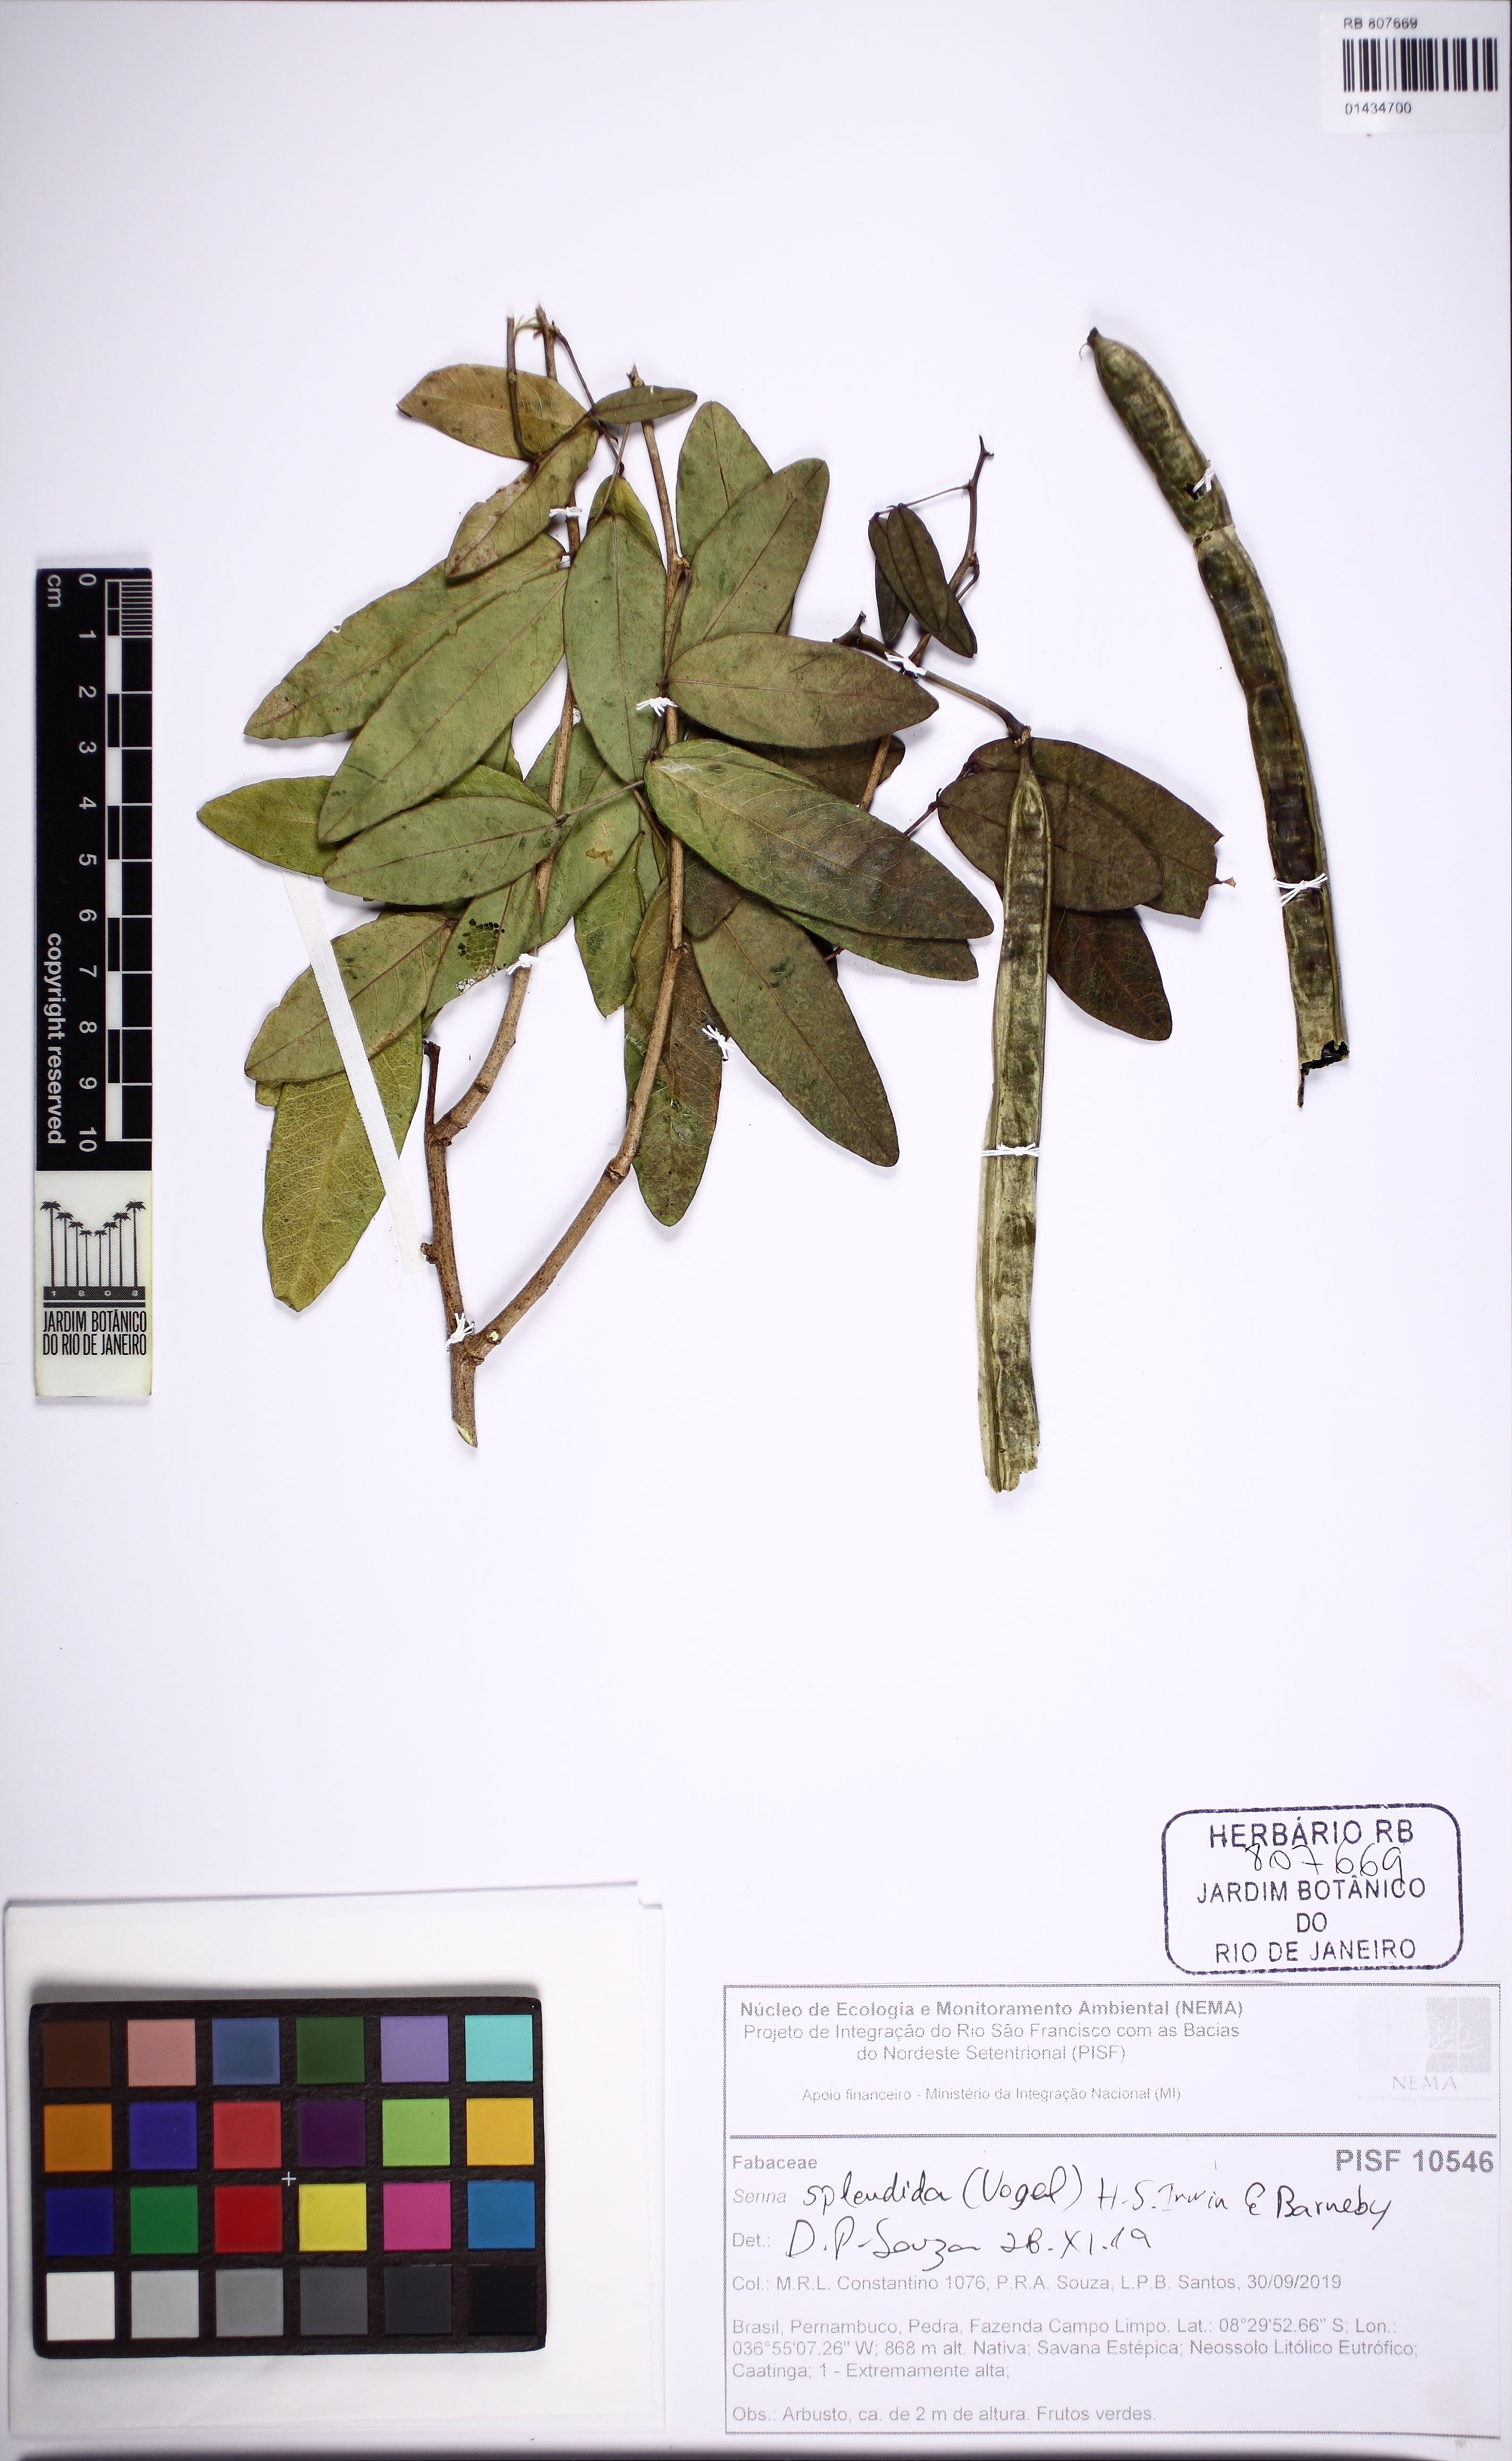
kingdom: Plantae
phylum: Tracheophyta
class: Magnoliopsida
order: Fabales
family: Fabaceae
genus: Senna
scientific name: Senna splendida
